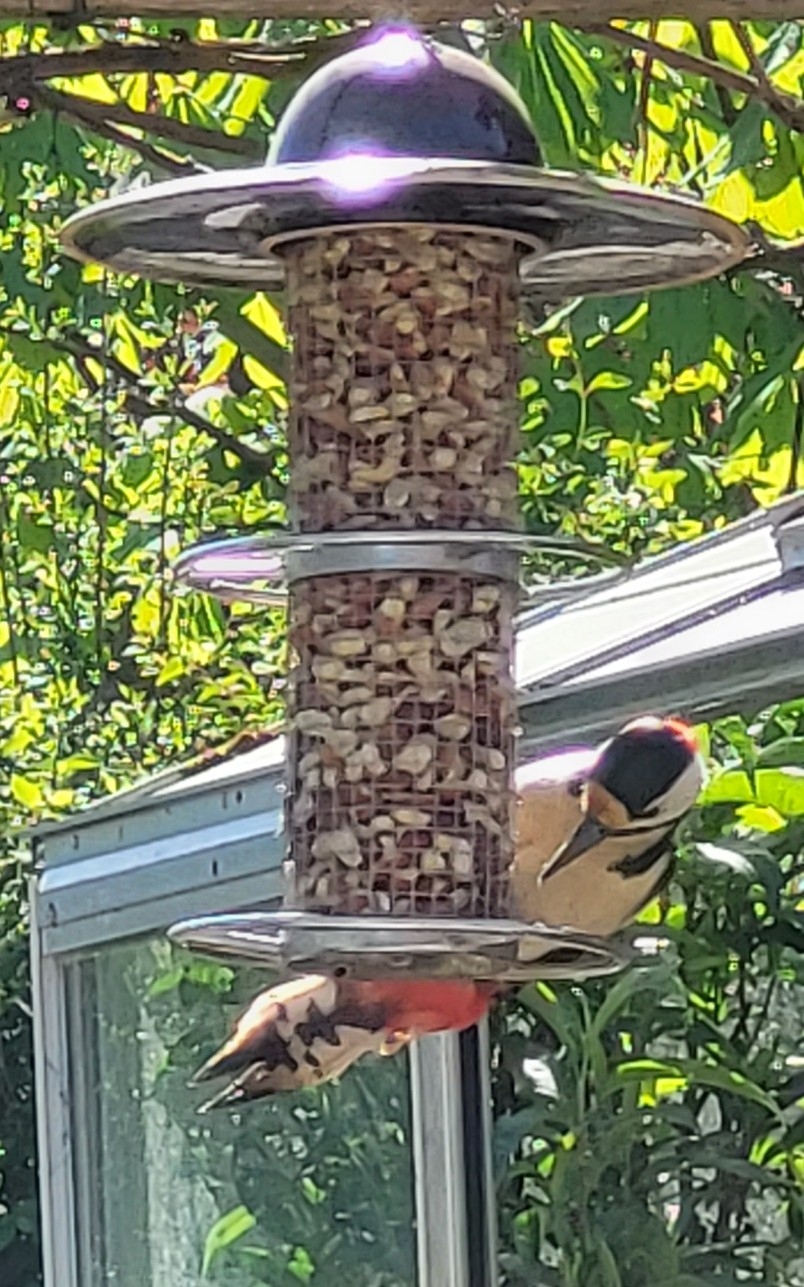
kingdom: Animalia
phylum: Chordata
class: Aves
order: Piciformes
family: Picidae
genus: Dendrocopos
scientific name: Dendrocopos major
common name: Stor flagspætte
